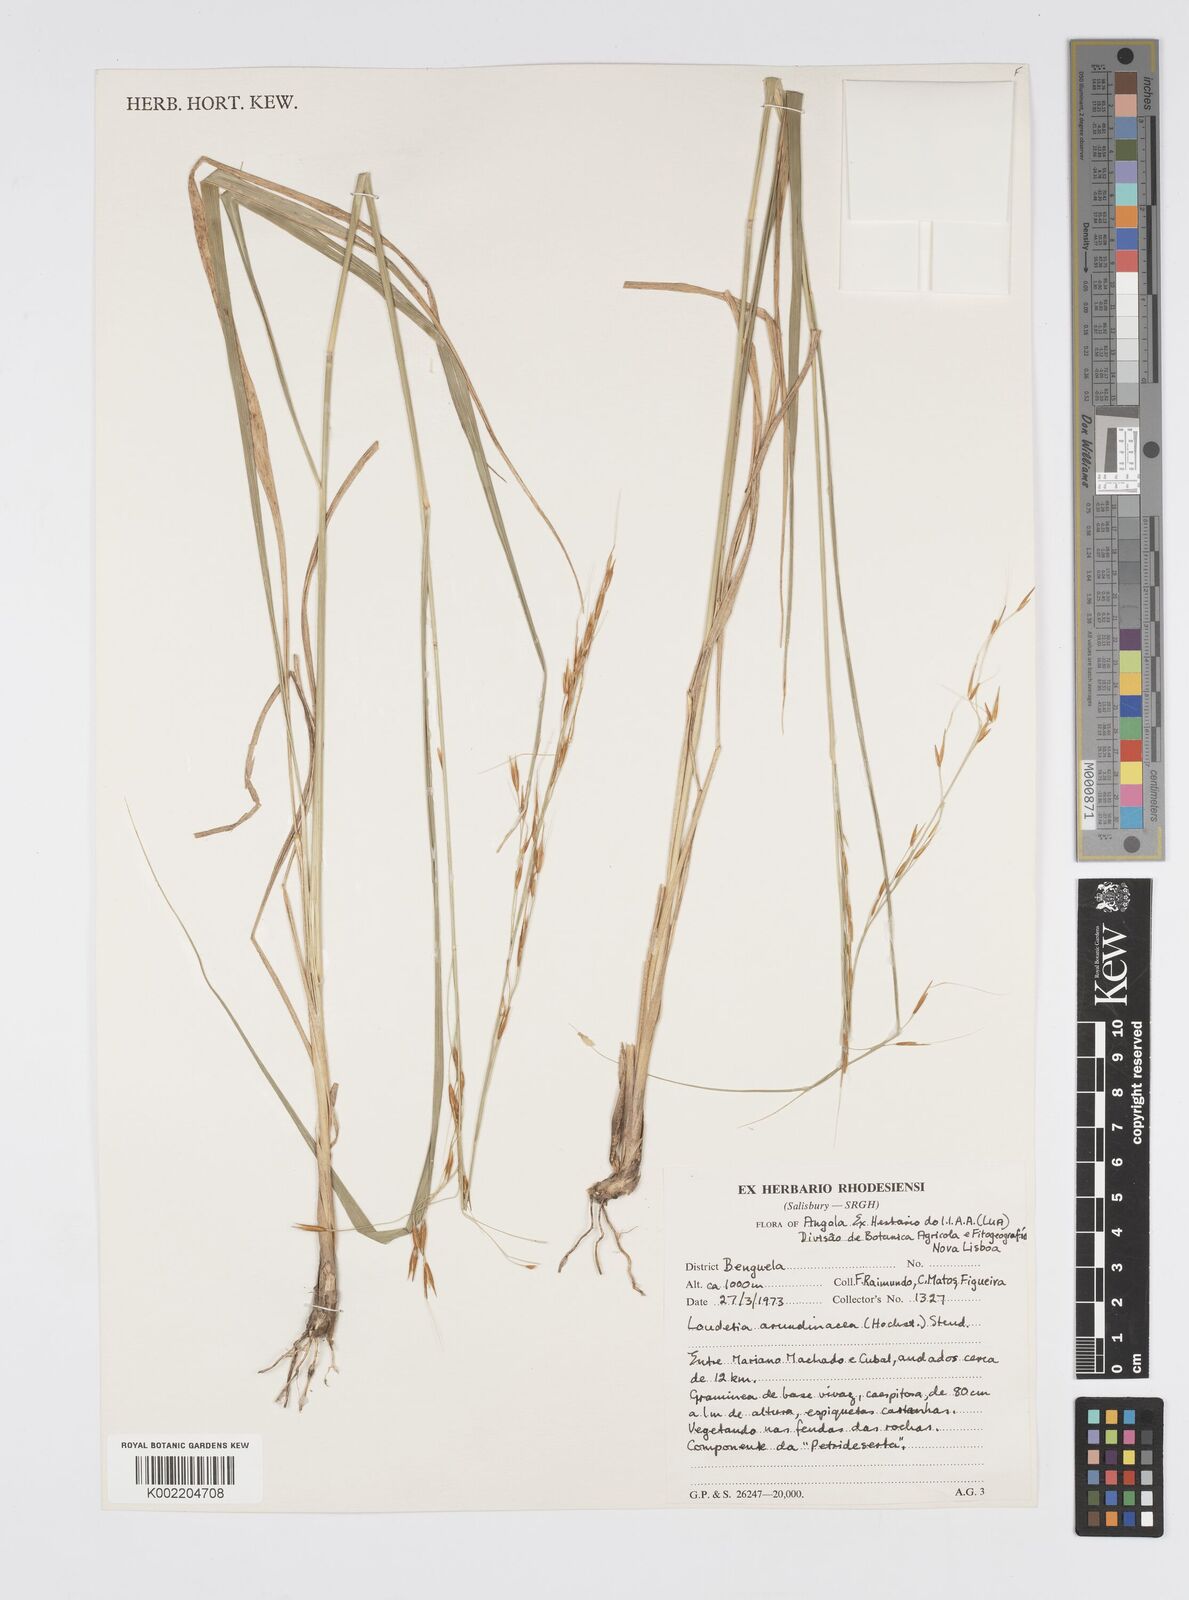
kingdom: Plantae
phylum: Tracheophyta
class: Liliopsida
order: Poales
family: Poaceae
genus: Loudetia
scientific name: Loudetia arundinacea
